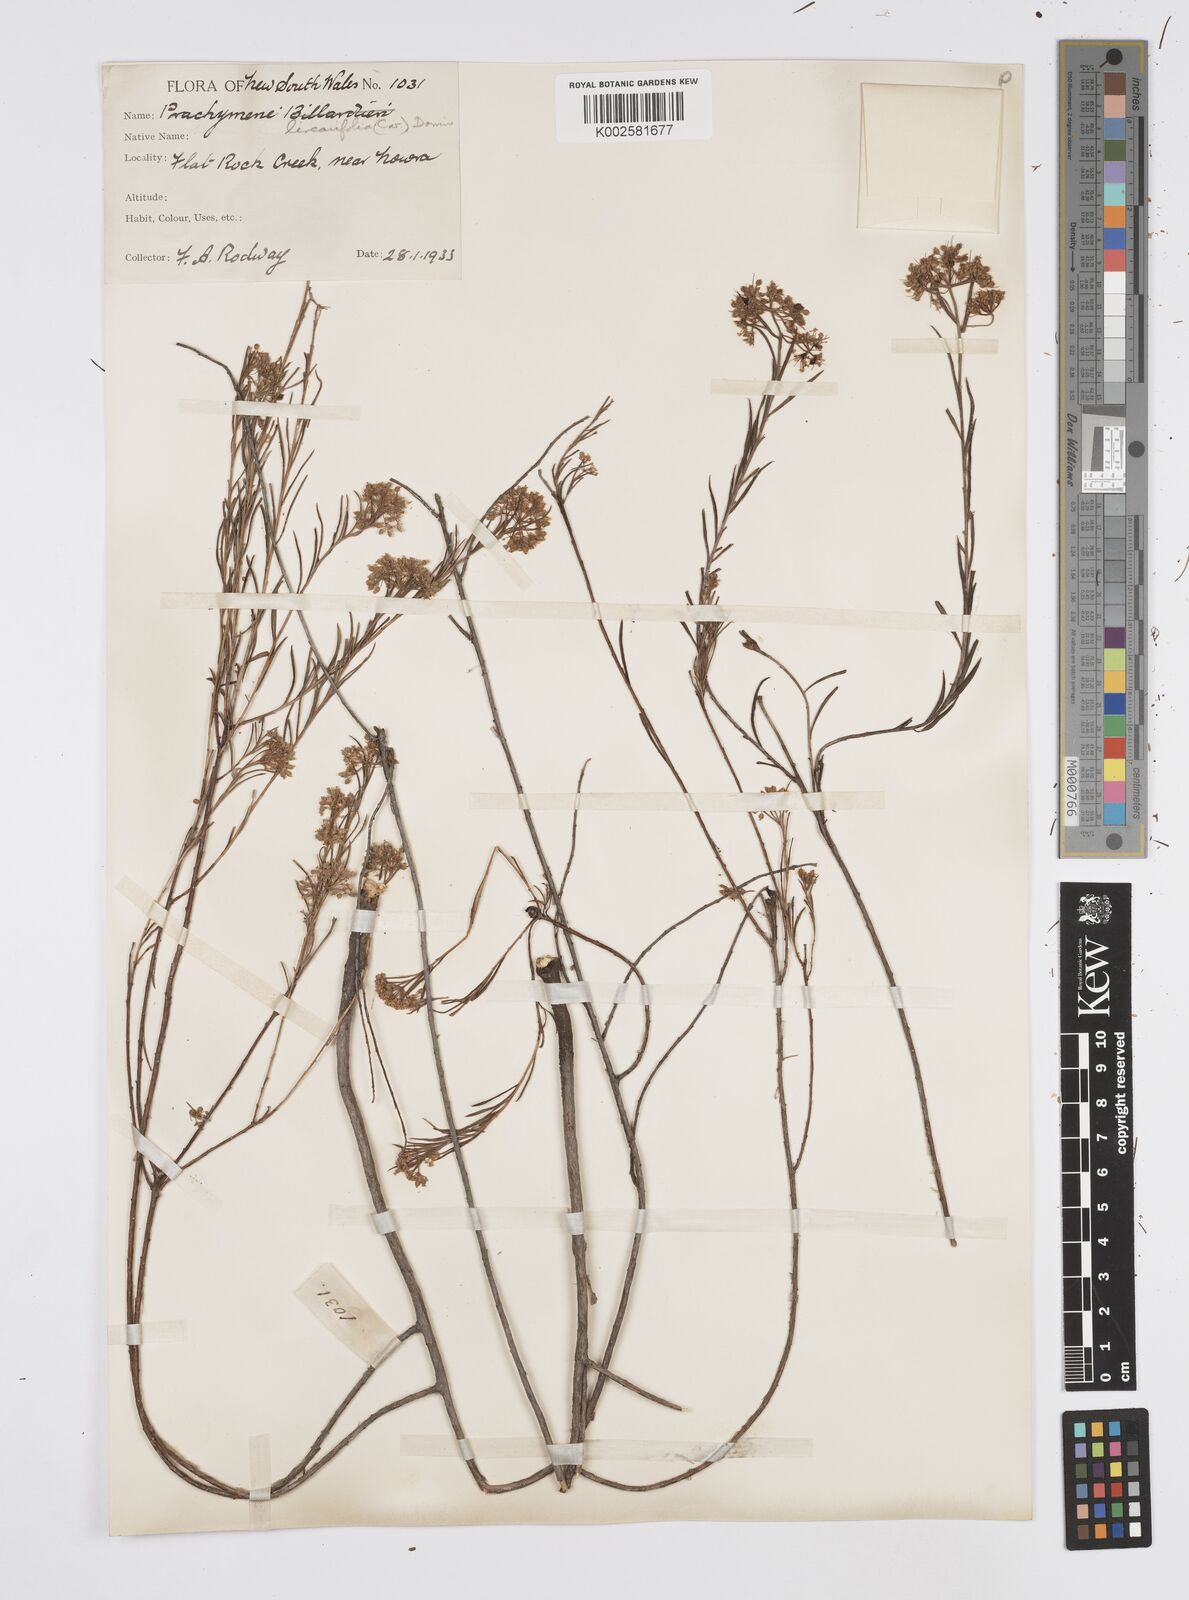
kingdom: Plantae
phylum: Tracheophyta
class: Magnoliopsida
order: Apiales
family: Apiaceae
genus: Platysace
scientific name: Platysace linearifolia
